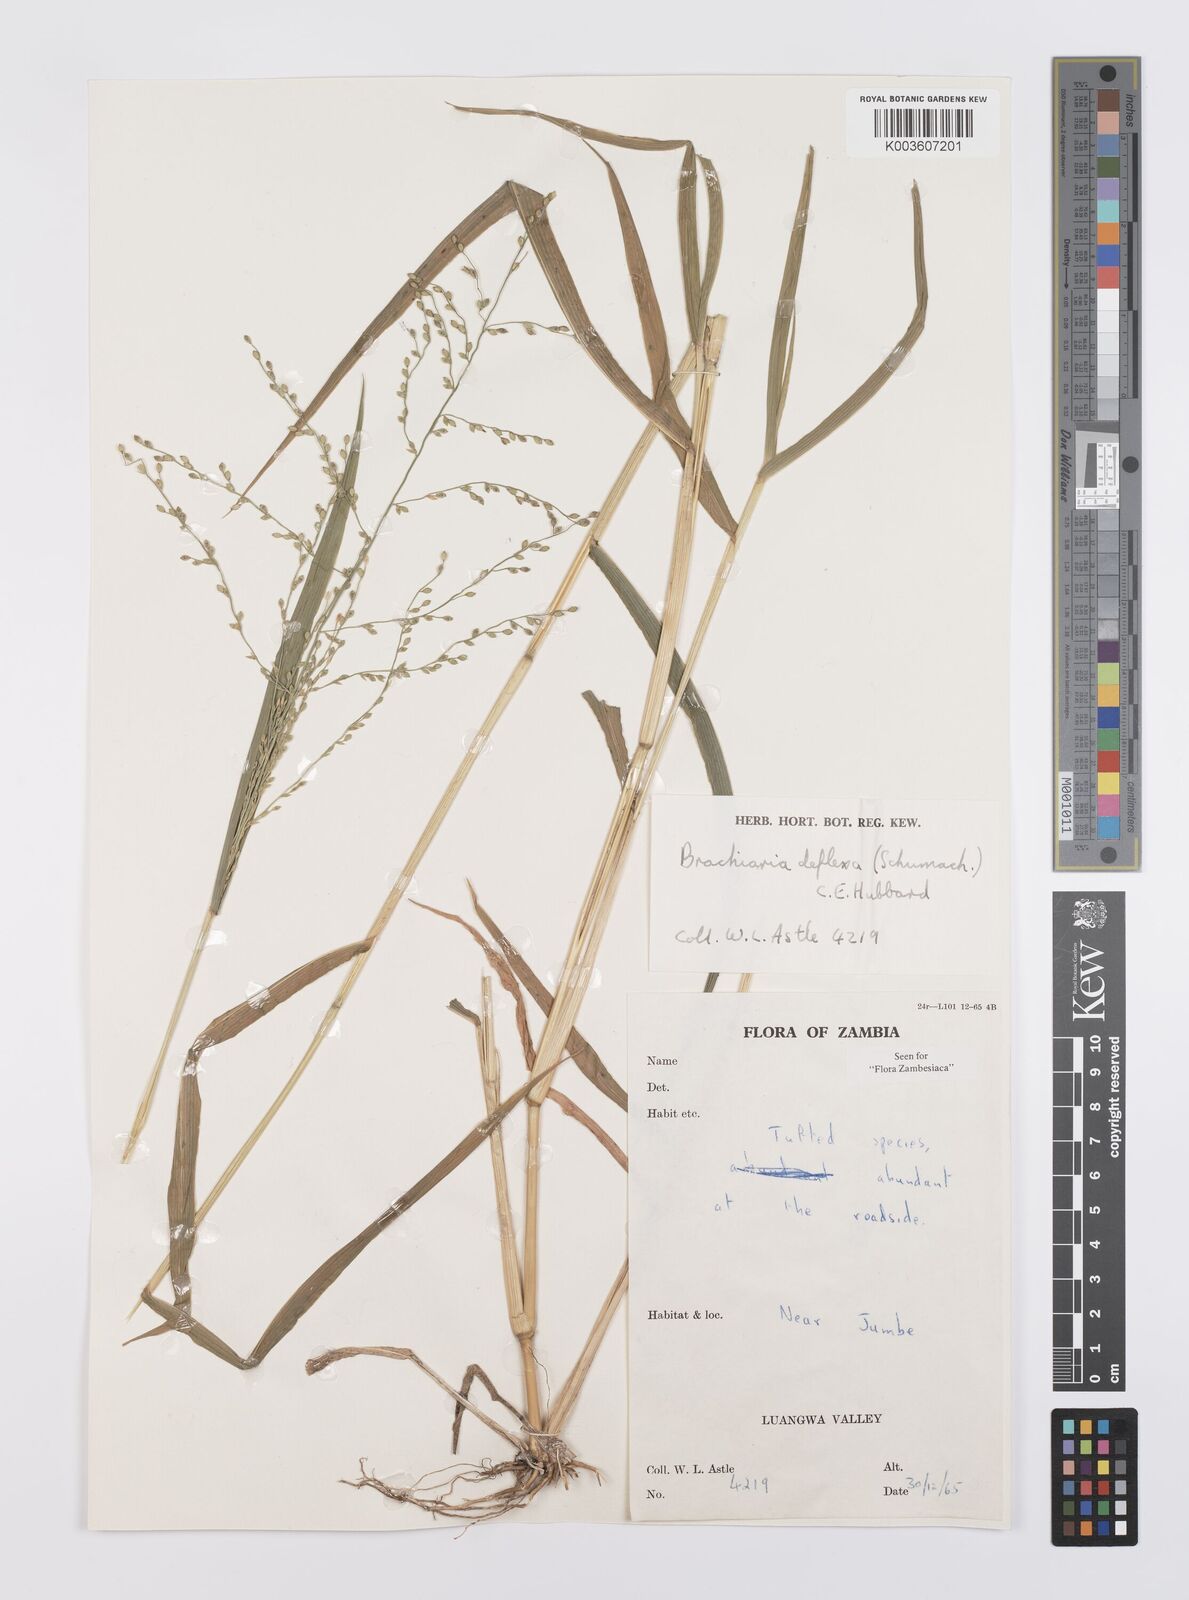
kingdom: Plantae
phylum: Tracheophyta
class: Liliopsida
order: Poales
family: Poaceae
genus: Urochloa
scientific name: Urochloa deflexa
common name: Guinea millet
